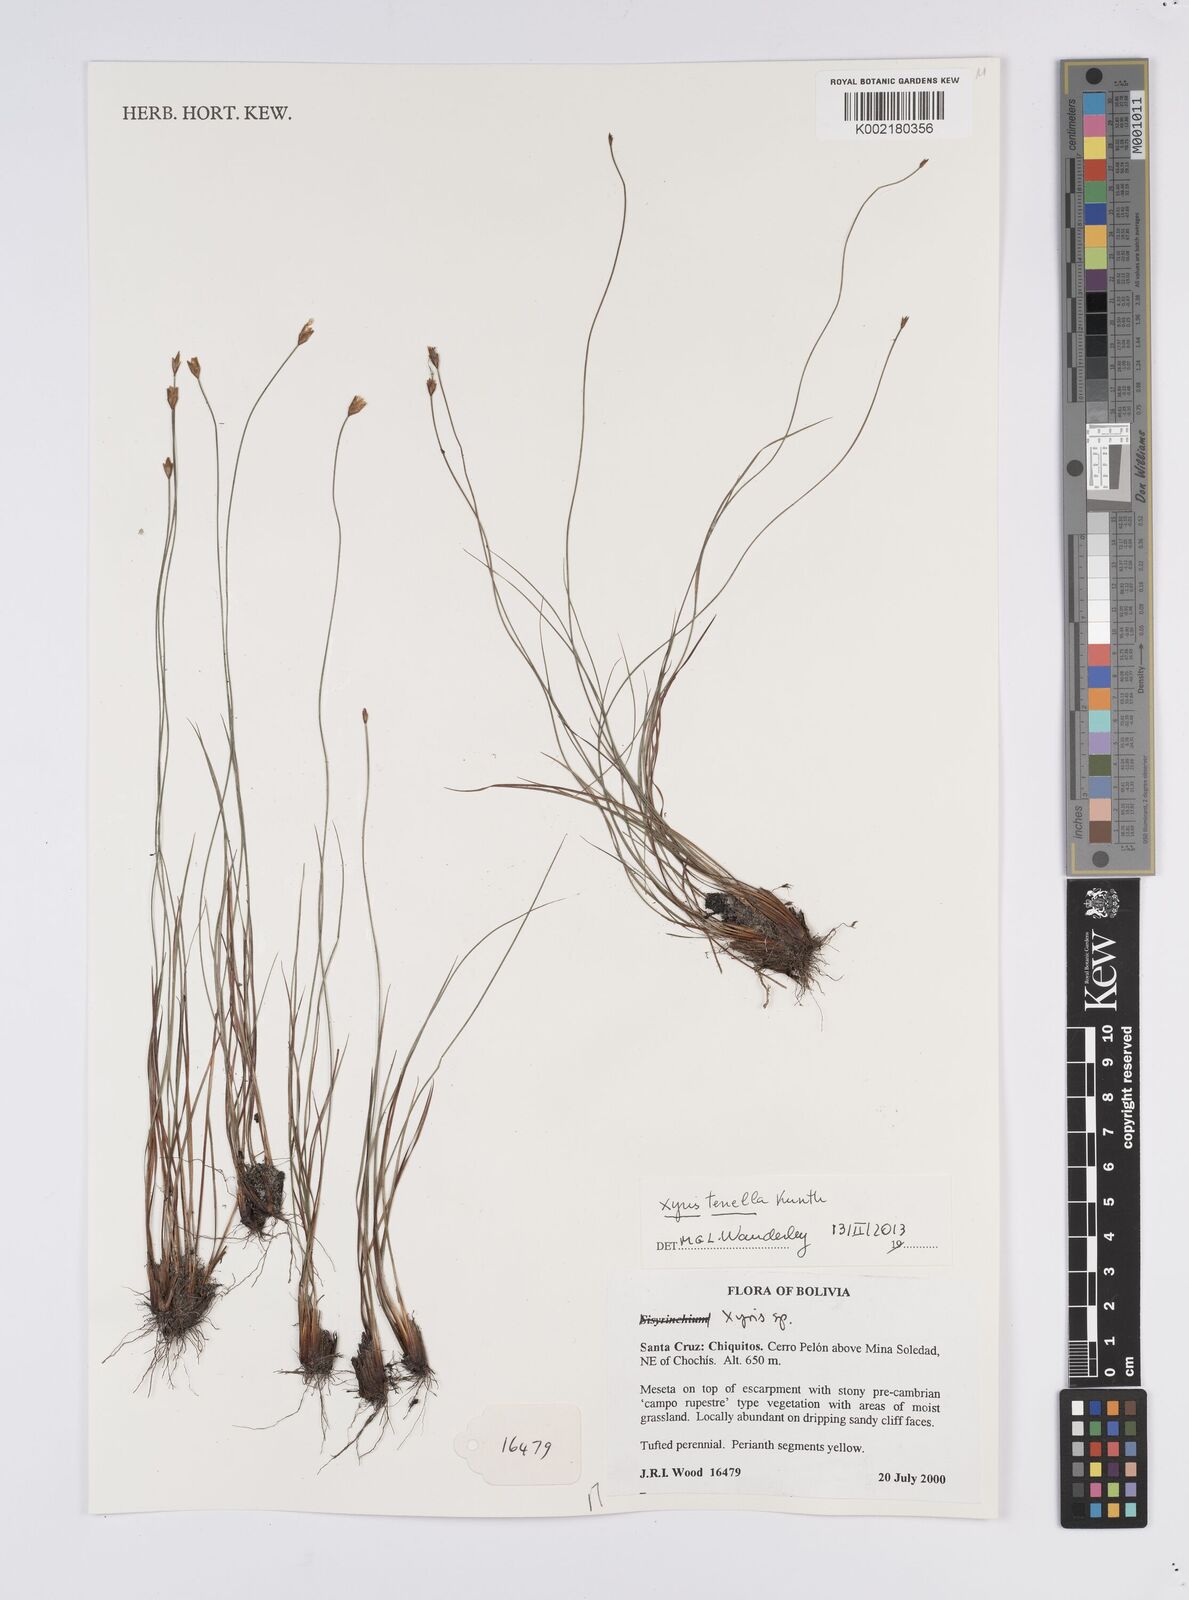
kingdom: Plantae
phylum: Tracheophyta
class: Liliopsida
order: Poales
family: Xyridaceae
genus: Xyris
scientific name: Xyris tenella
